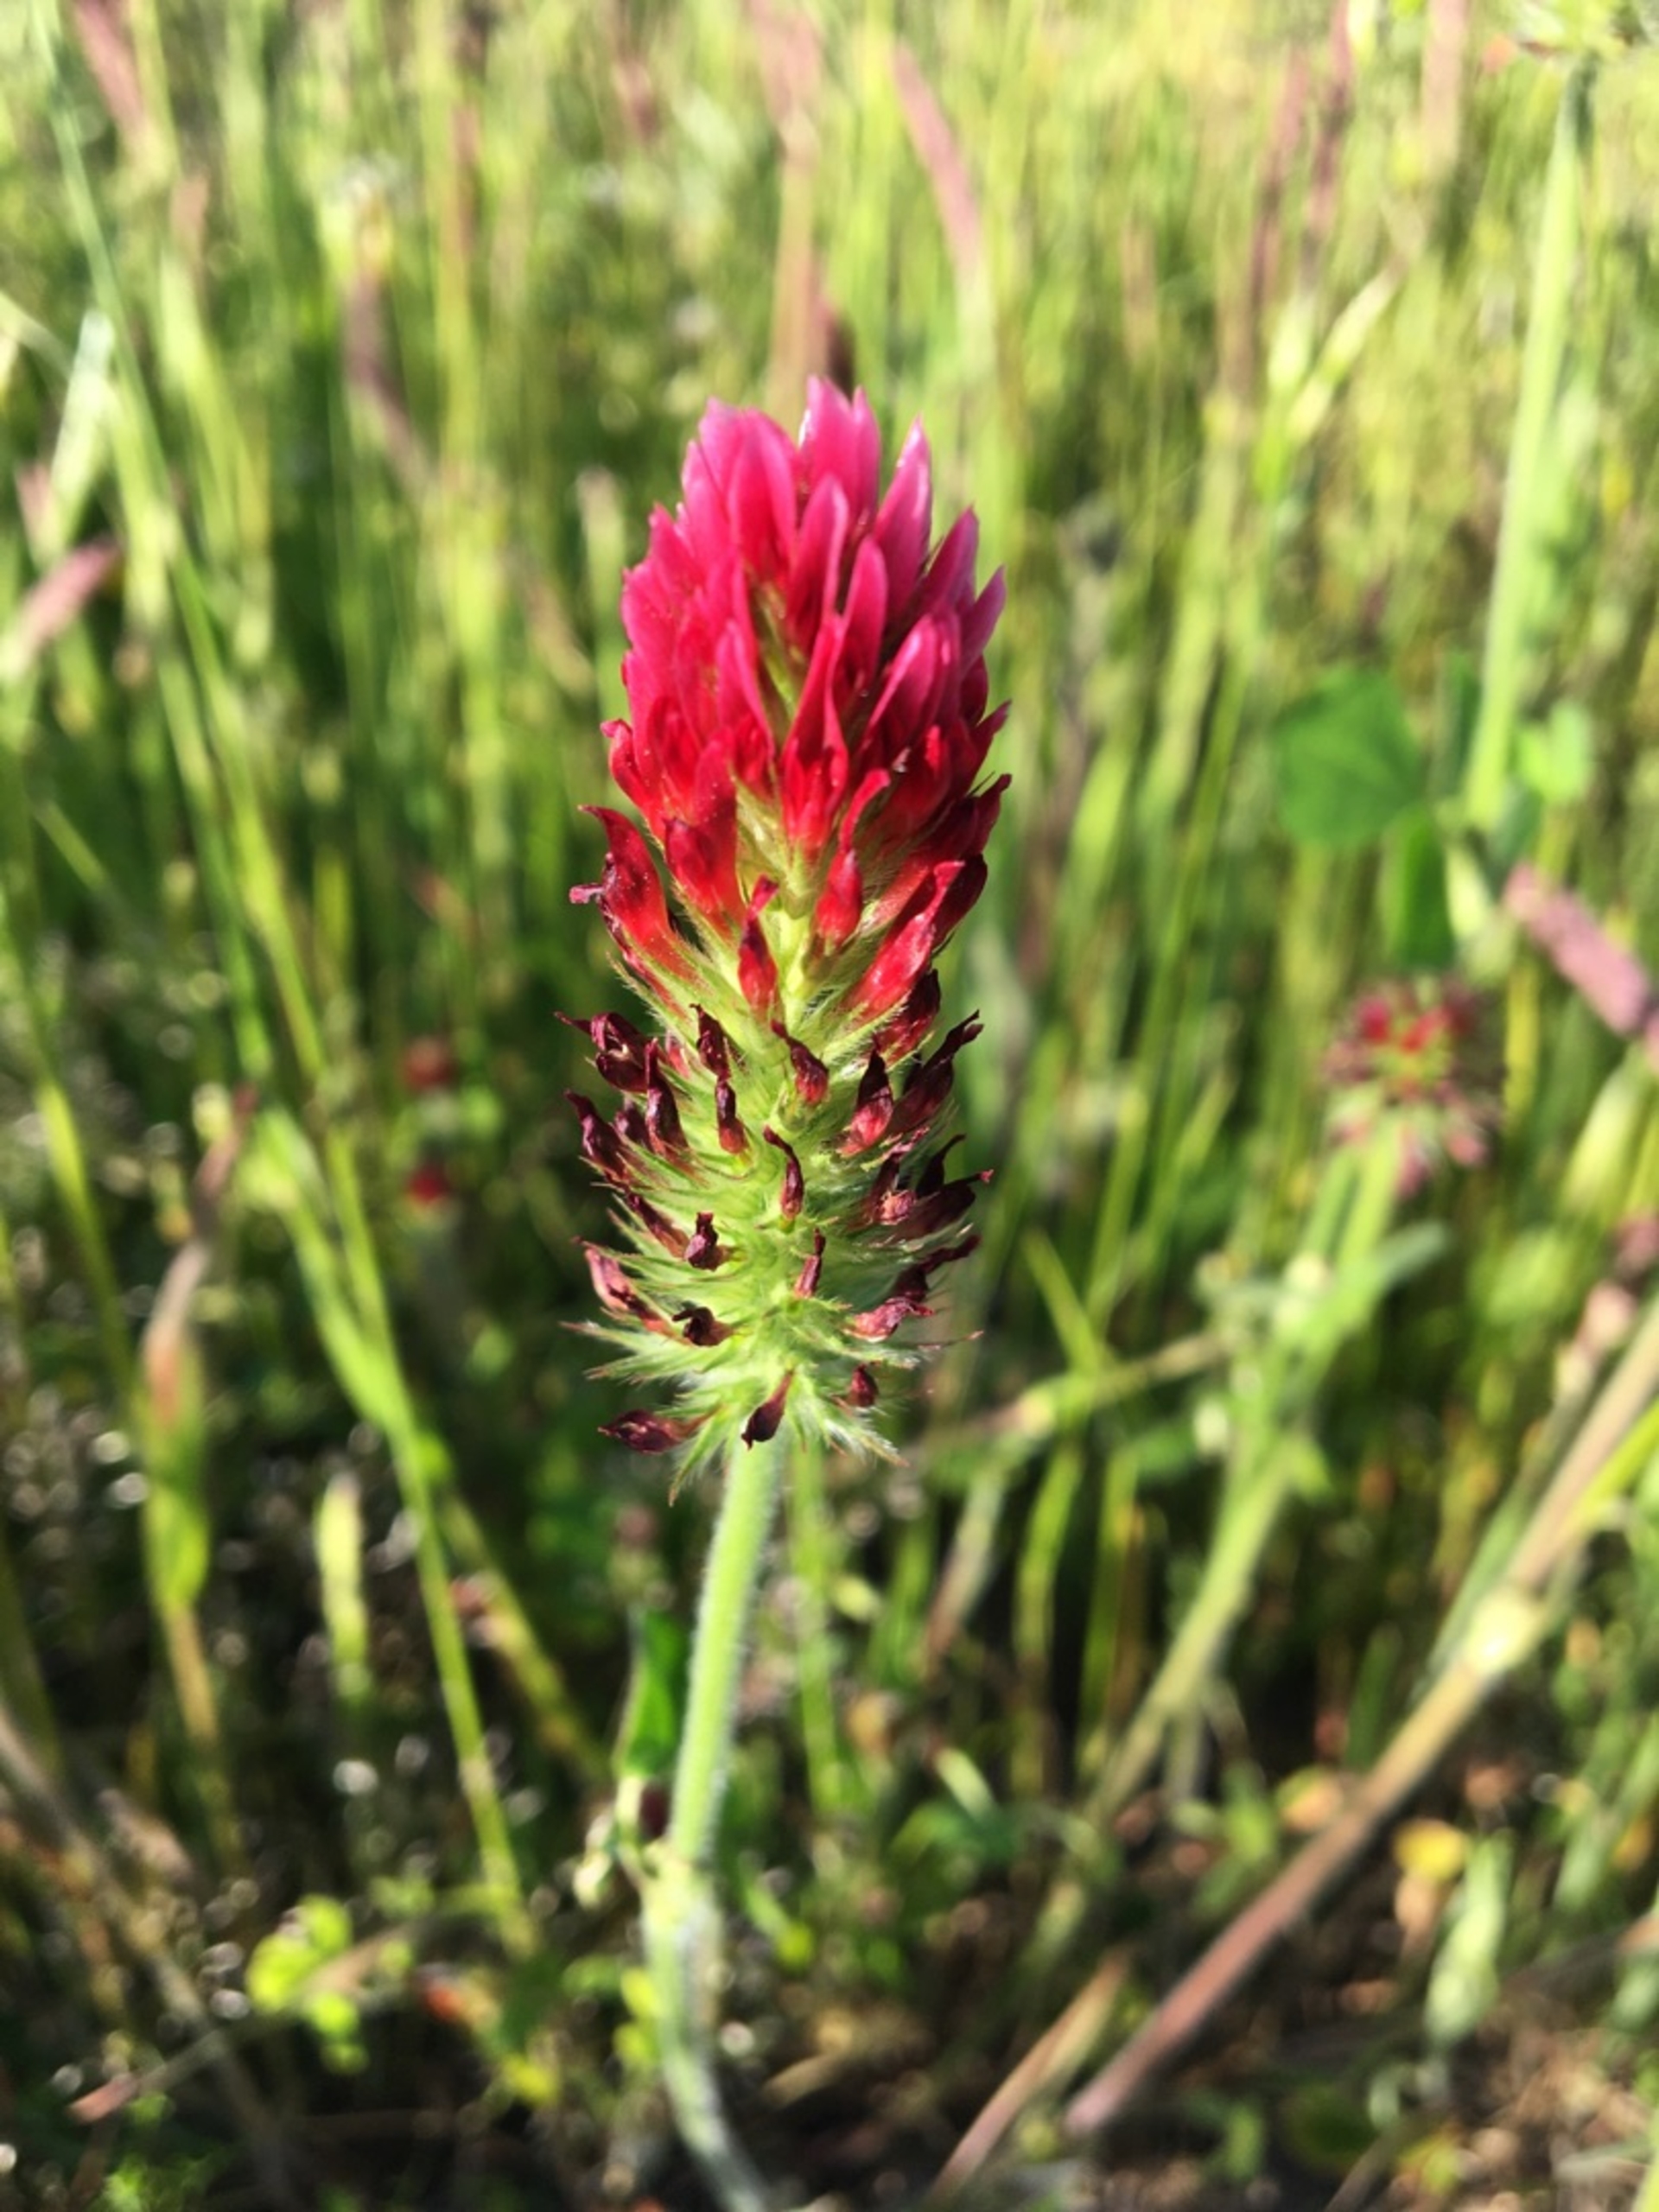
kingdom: Plantae
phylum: Tracheophyta
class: Magnoliopsida
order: Fabales
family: Fabaceae
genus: Trifolium
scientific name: Trifolium incarnatum
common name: Blod-kløver
